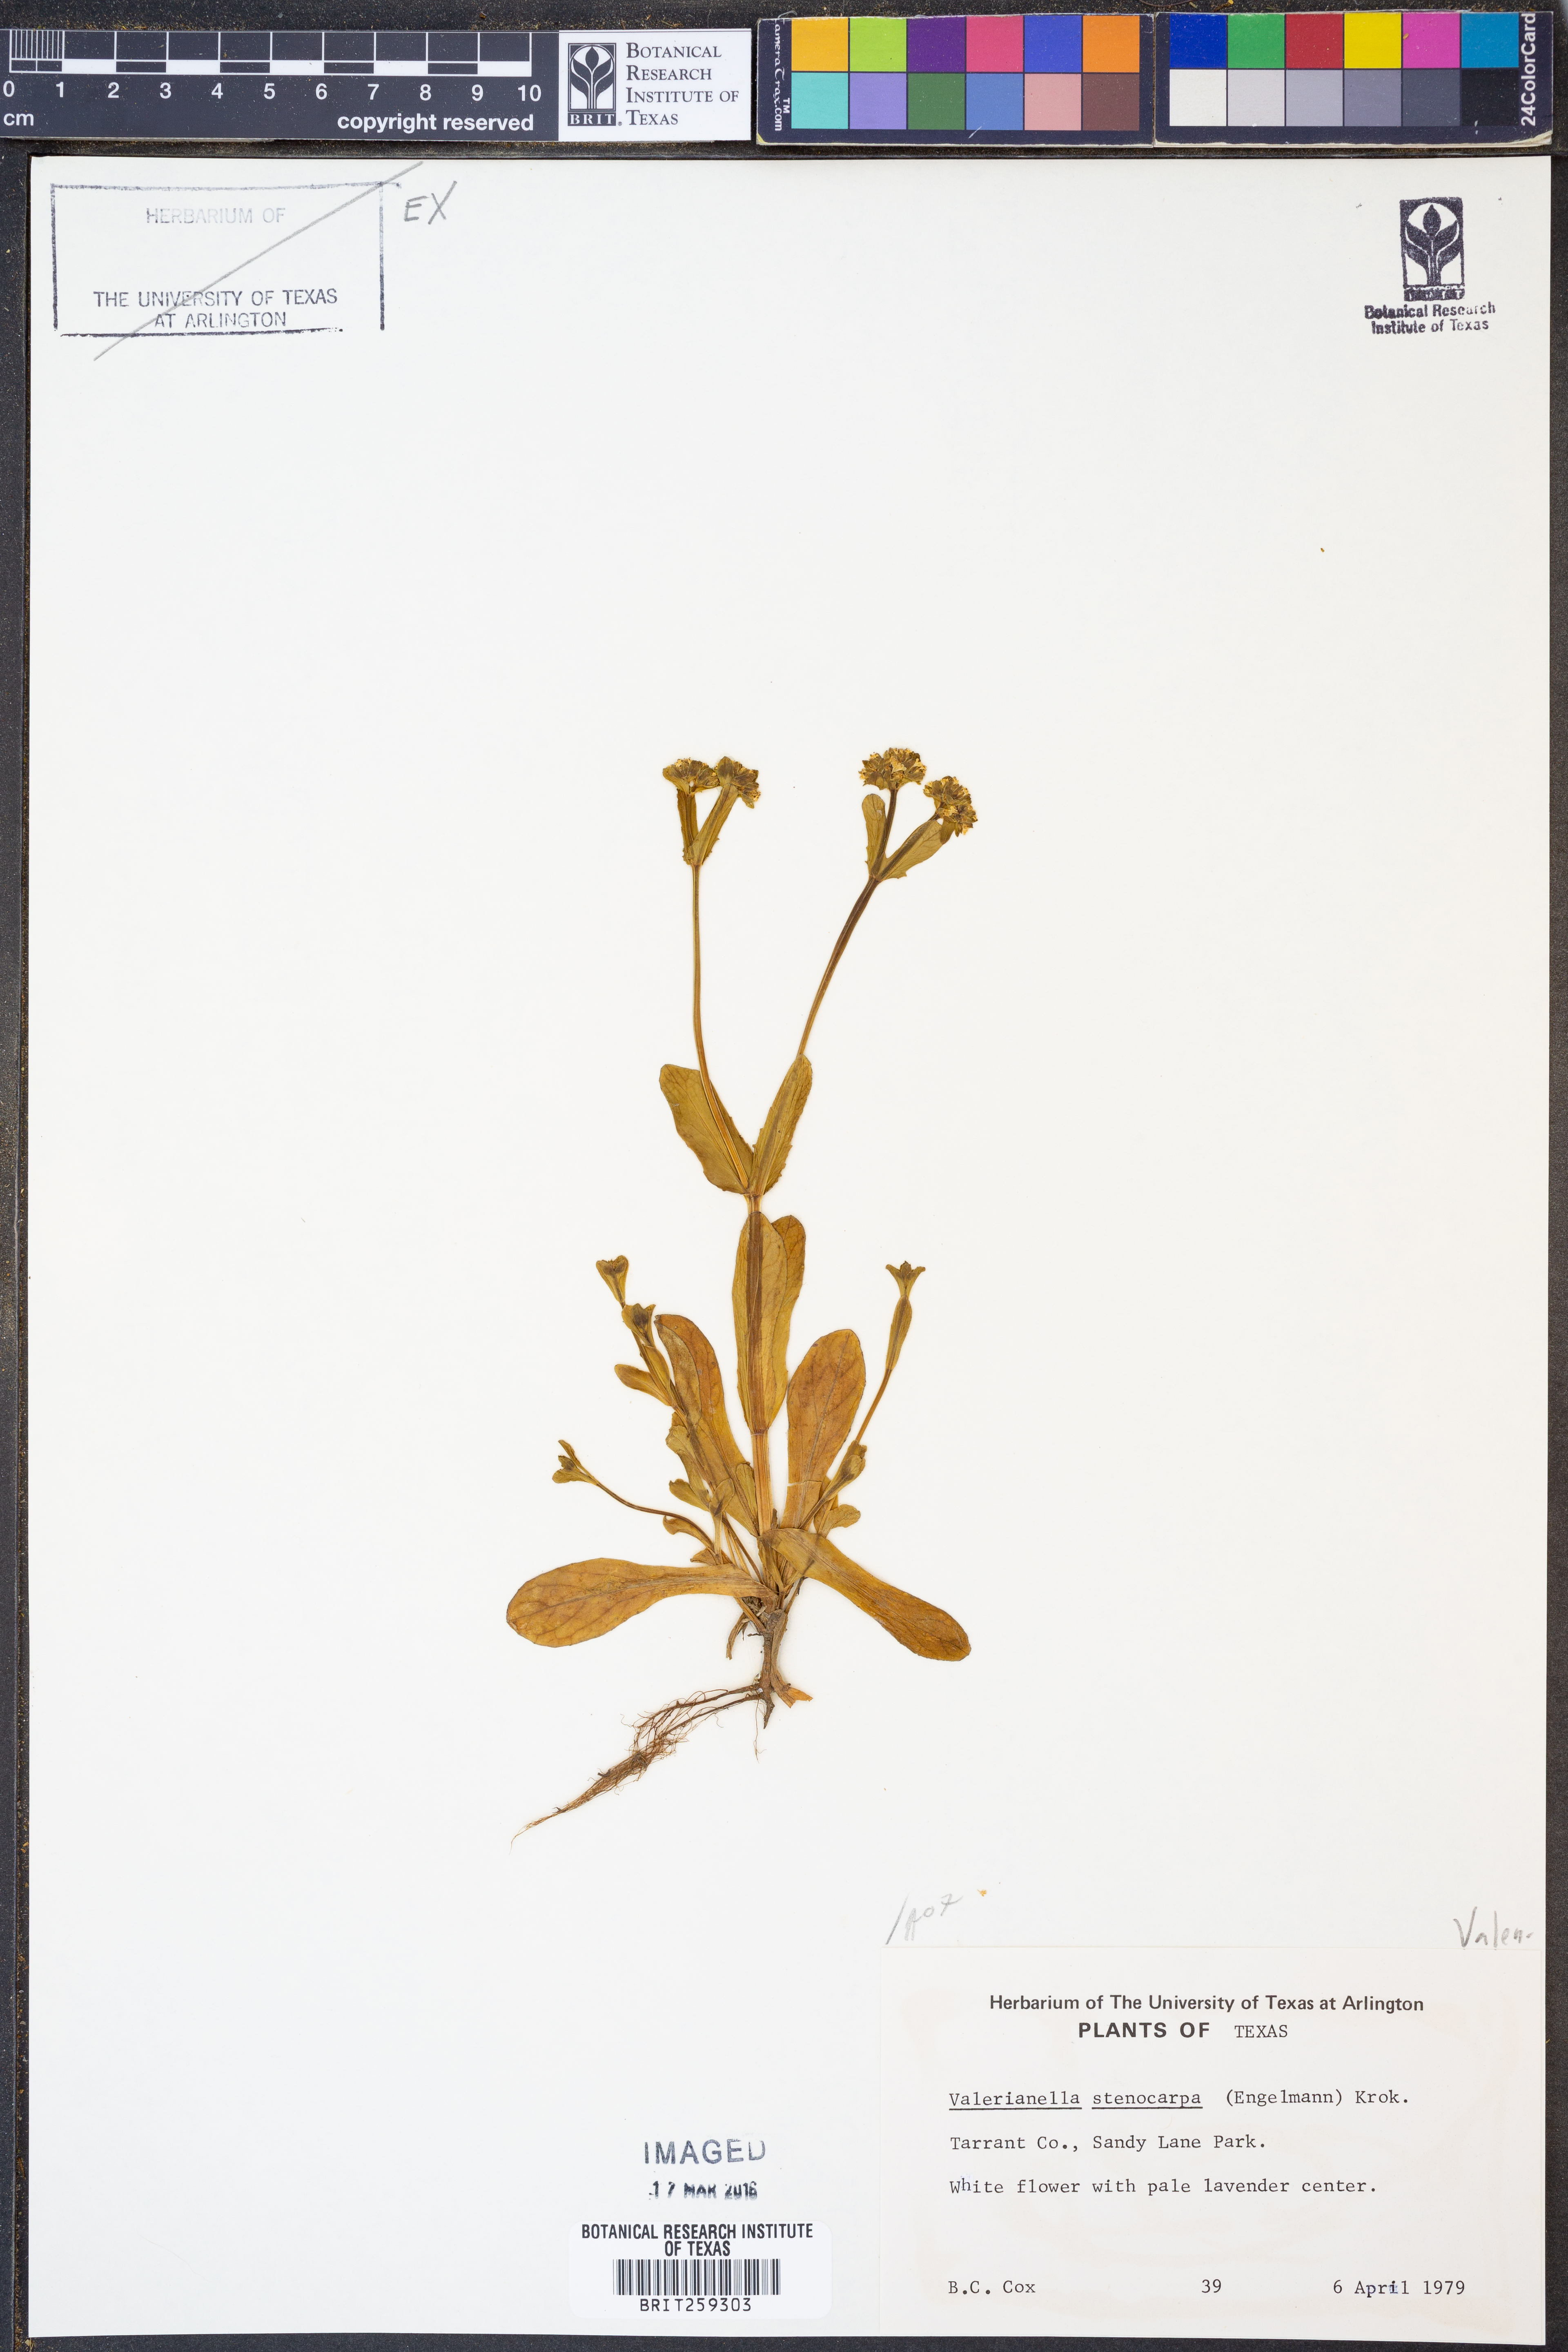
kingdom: Plantae
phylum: Tracheophyta
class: Magnoliopsida
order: Dipsacales
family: Caprifoliaceae
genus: Valerianella
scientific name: Valerianella stenocarpa
